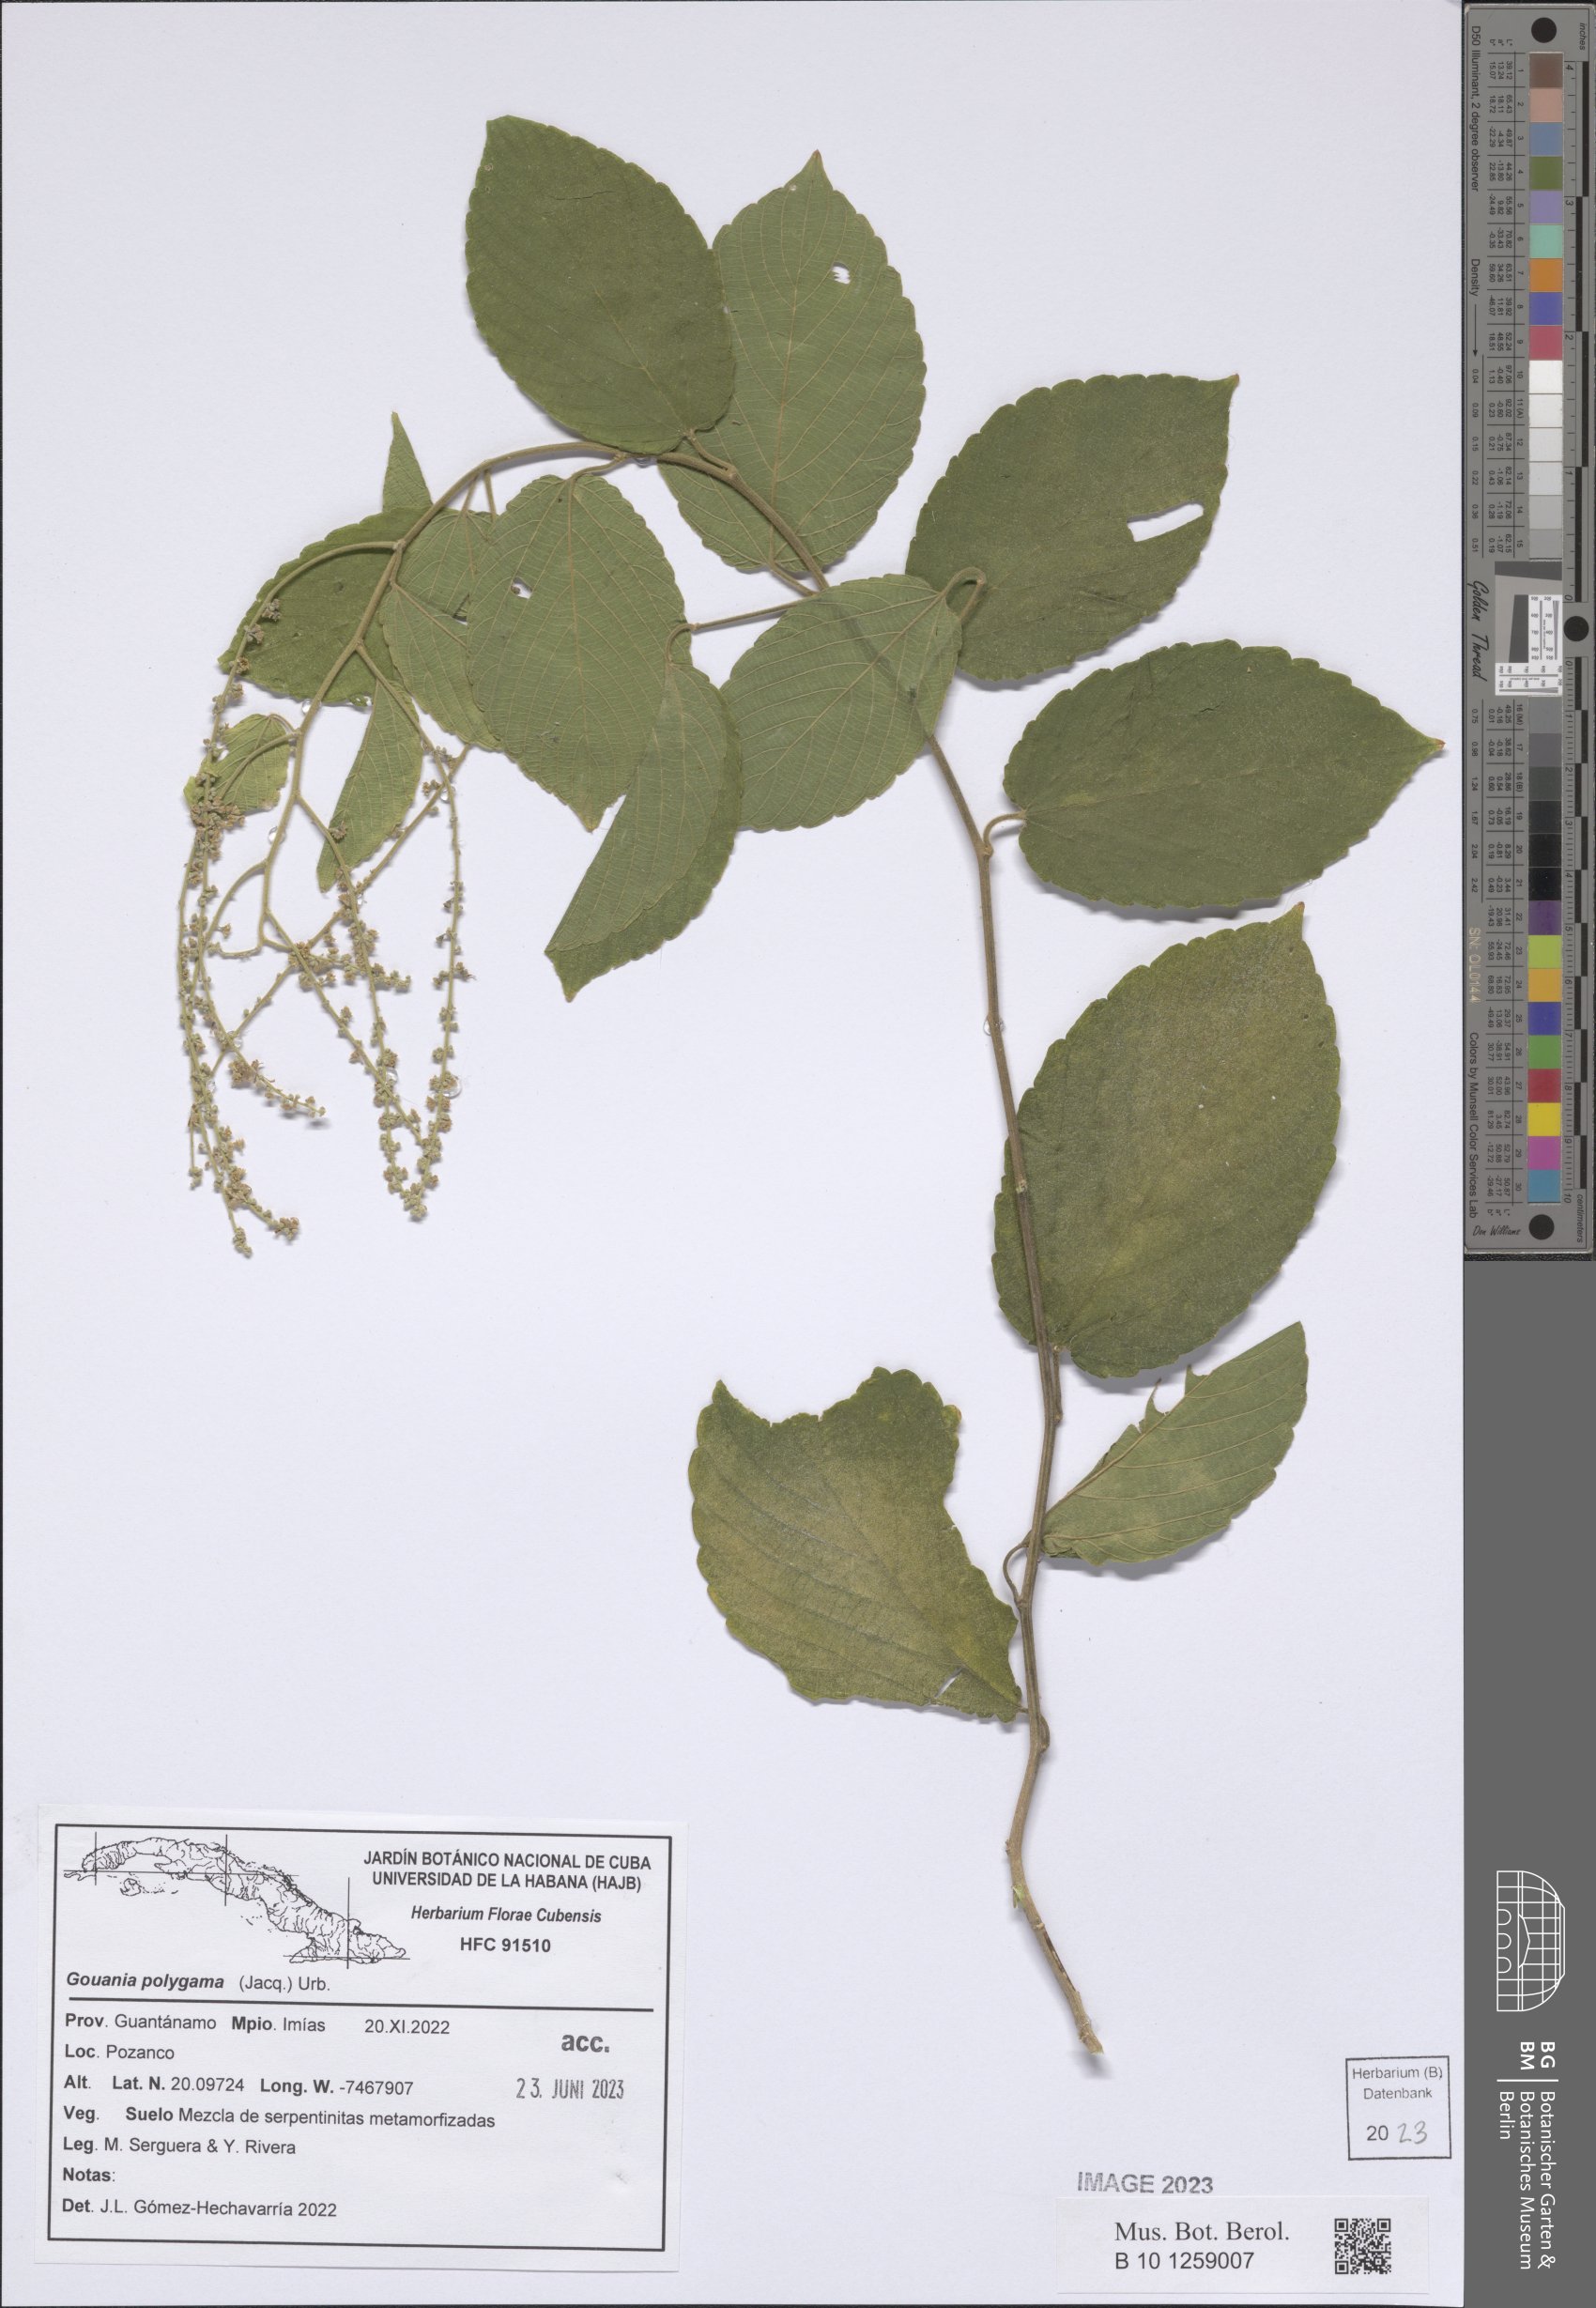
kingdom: Plantae
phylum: Tracheophyta
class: Magnoliopsida
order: Rosales
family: Rhamnaceae
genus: Gouania
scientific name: Gouania polygama
